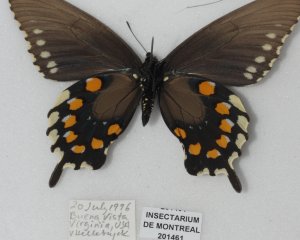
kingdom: Animalia
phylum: Arthropoda
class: Insecta
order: Lepidoptera
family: Papilionidae
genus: Battus
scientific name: Battus philenor
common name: Pipevine Swallowtail
